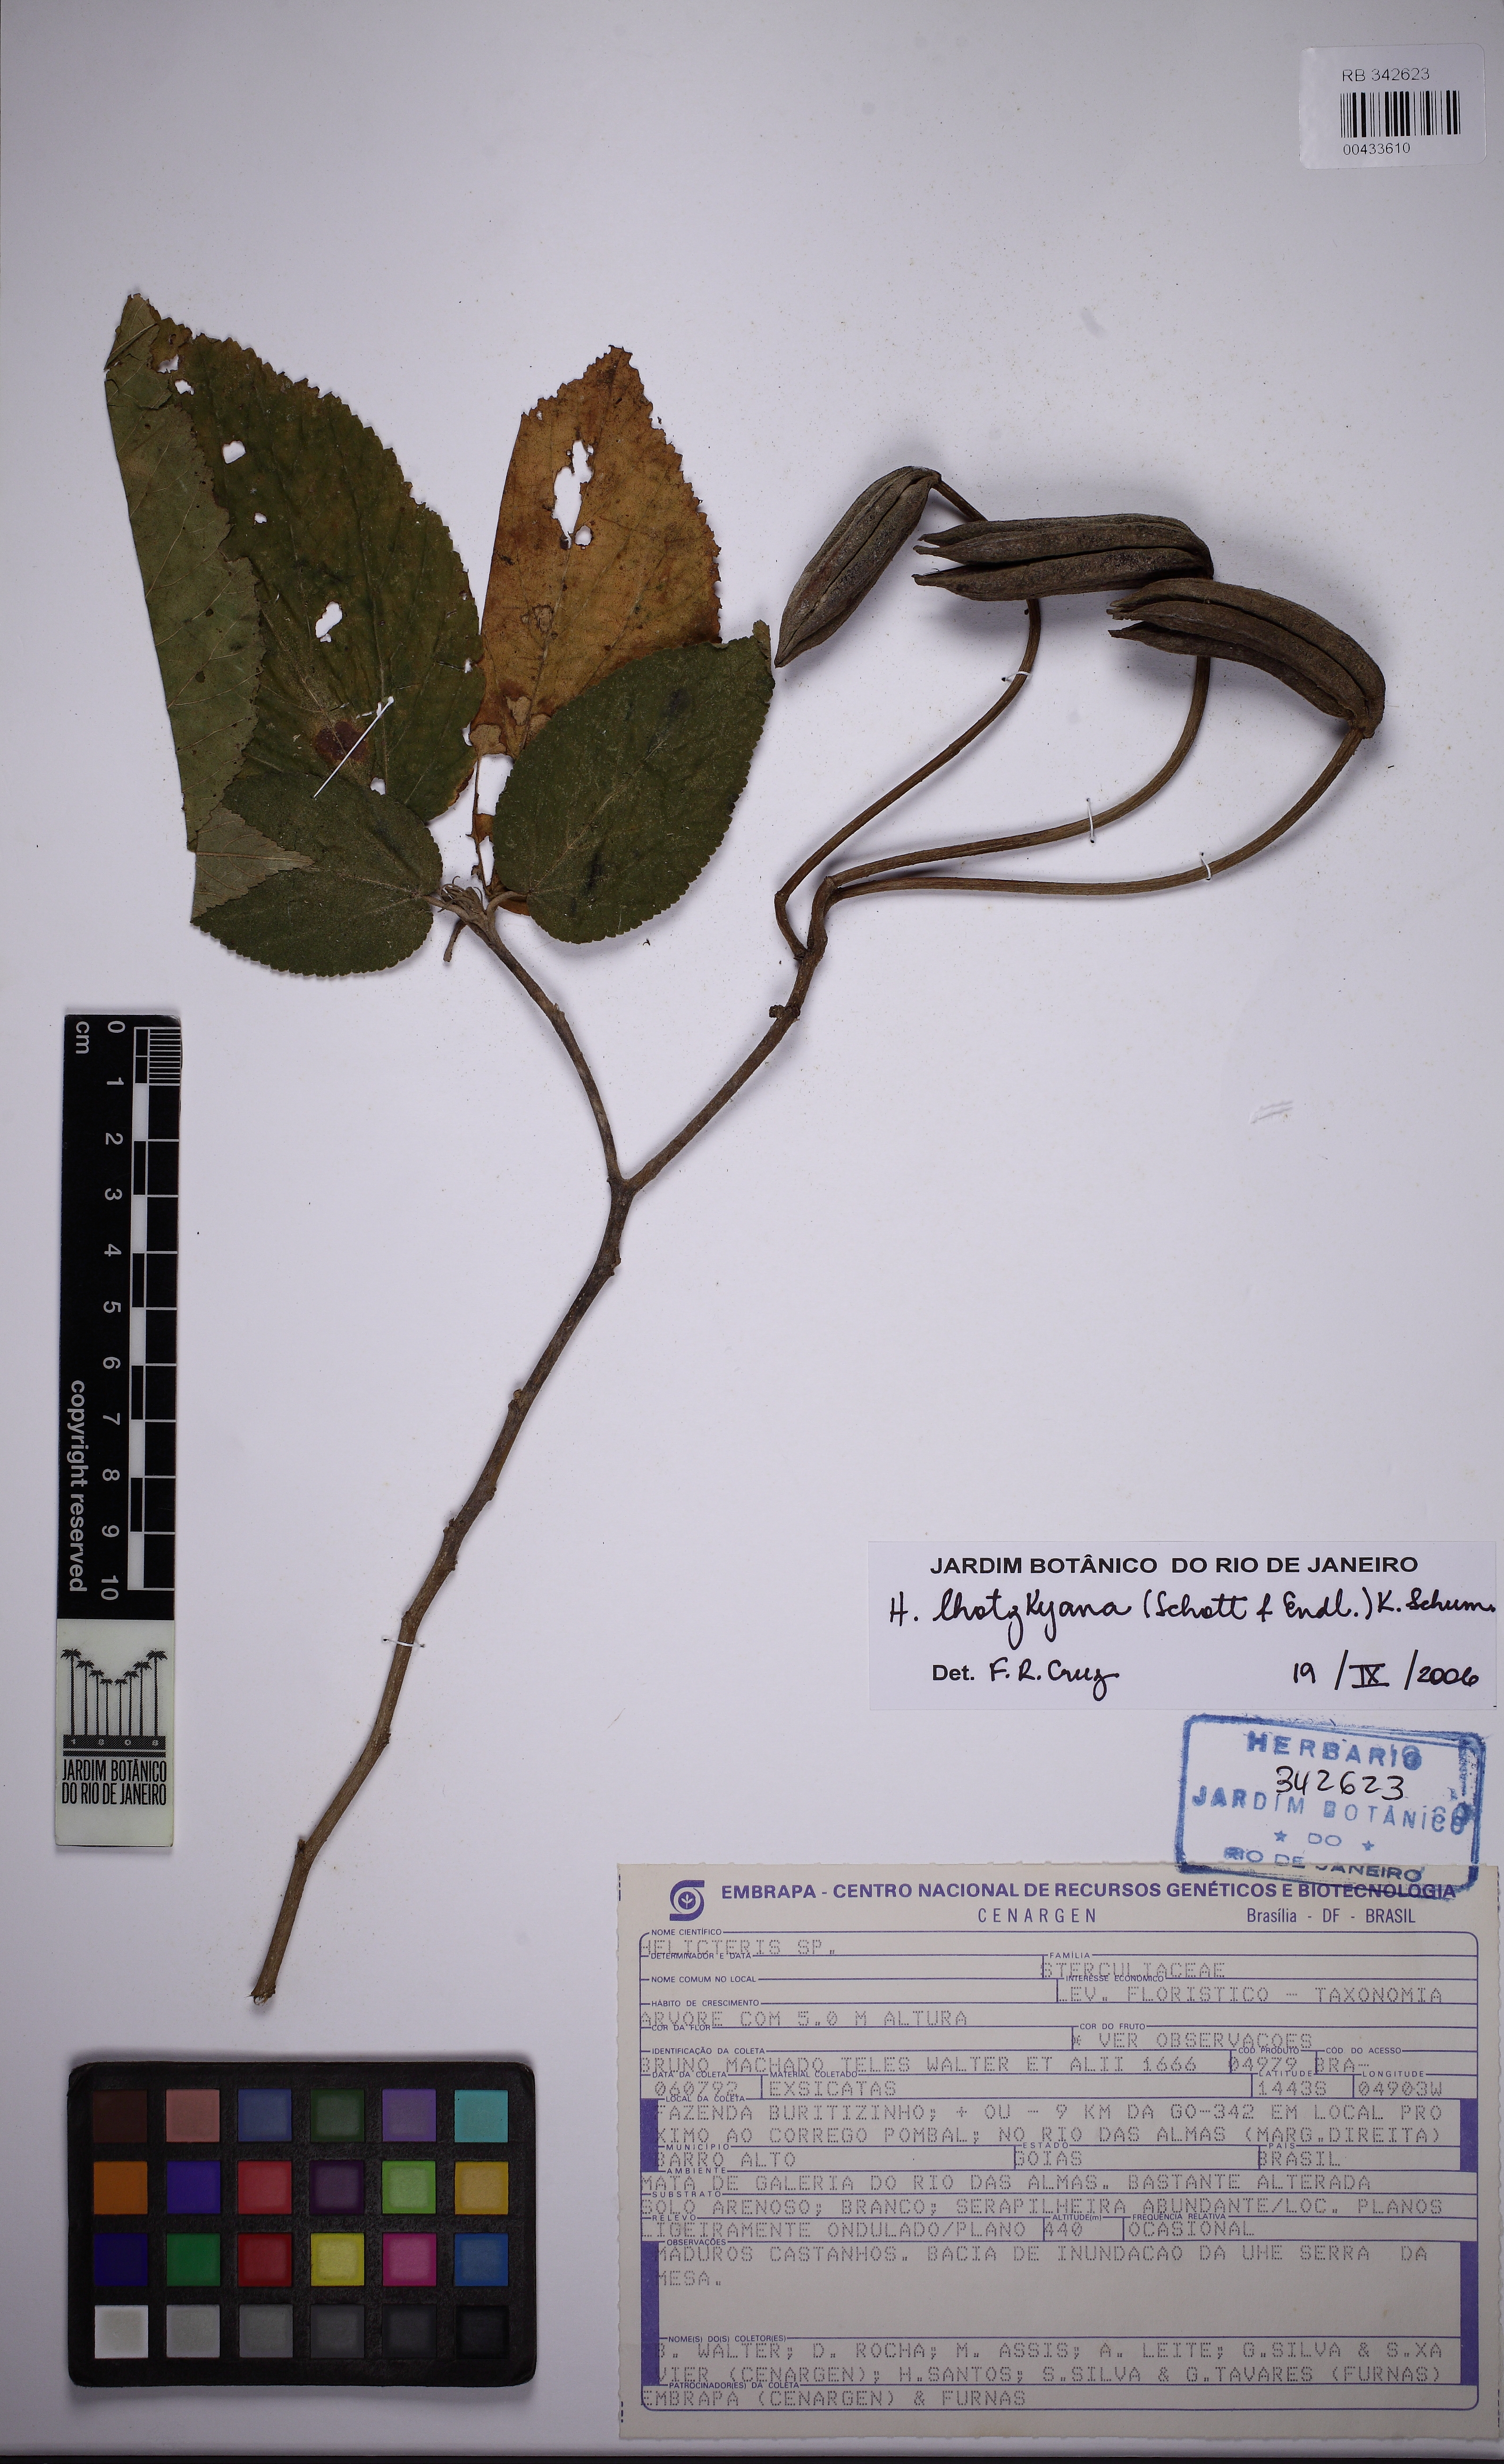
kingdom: Plantae
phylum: Tracheophyta
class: Magnoliopsida
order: Malvales
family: Malvaceae
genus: Helicteres
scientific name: Helicteres lhotzkyana
